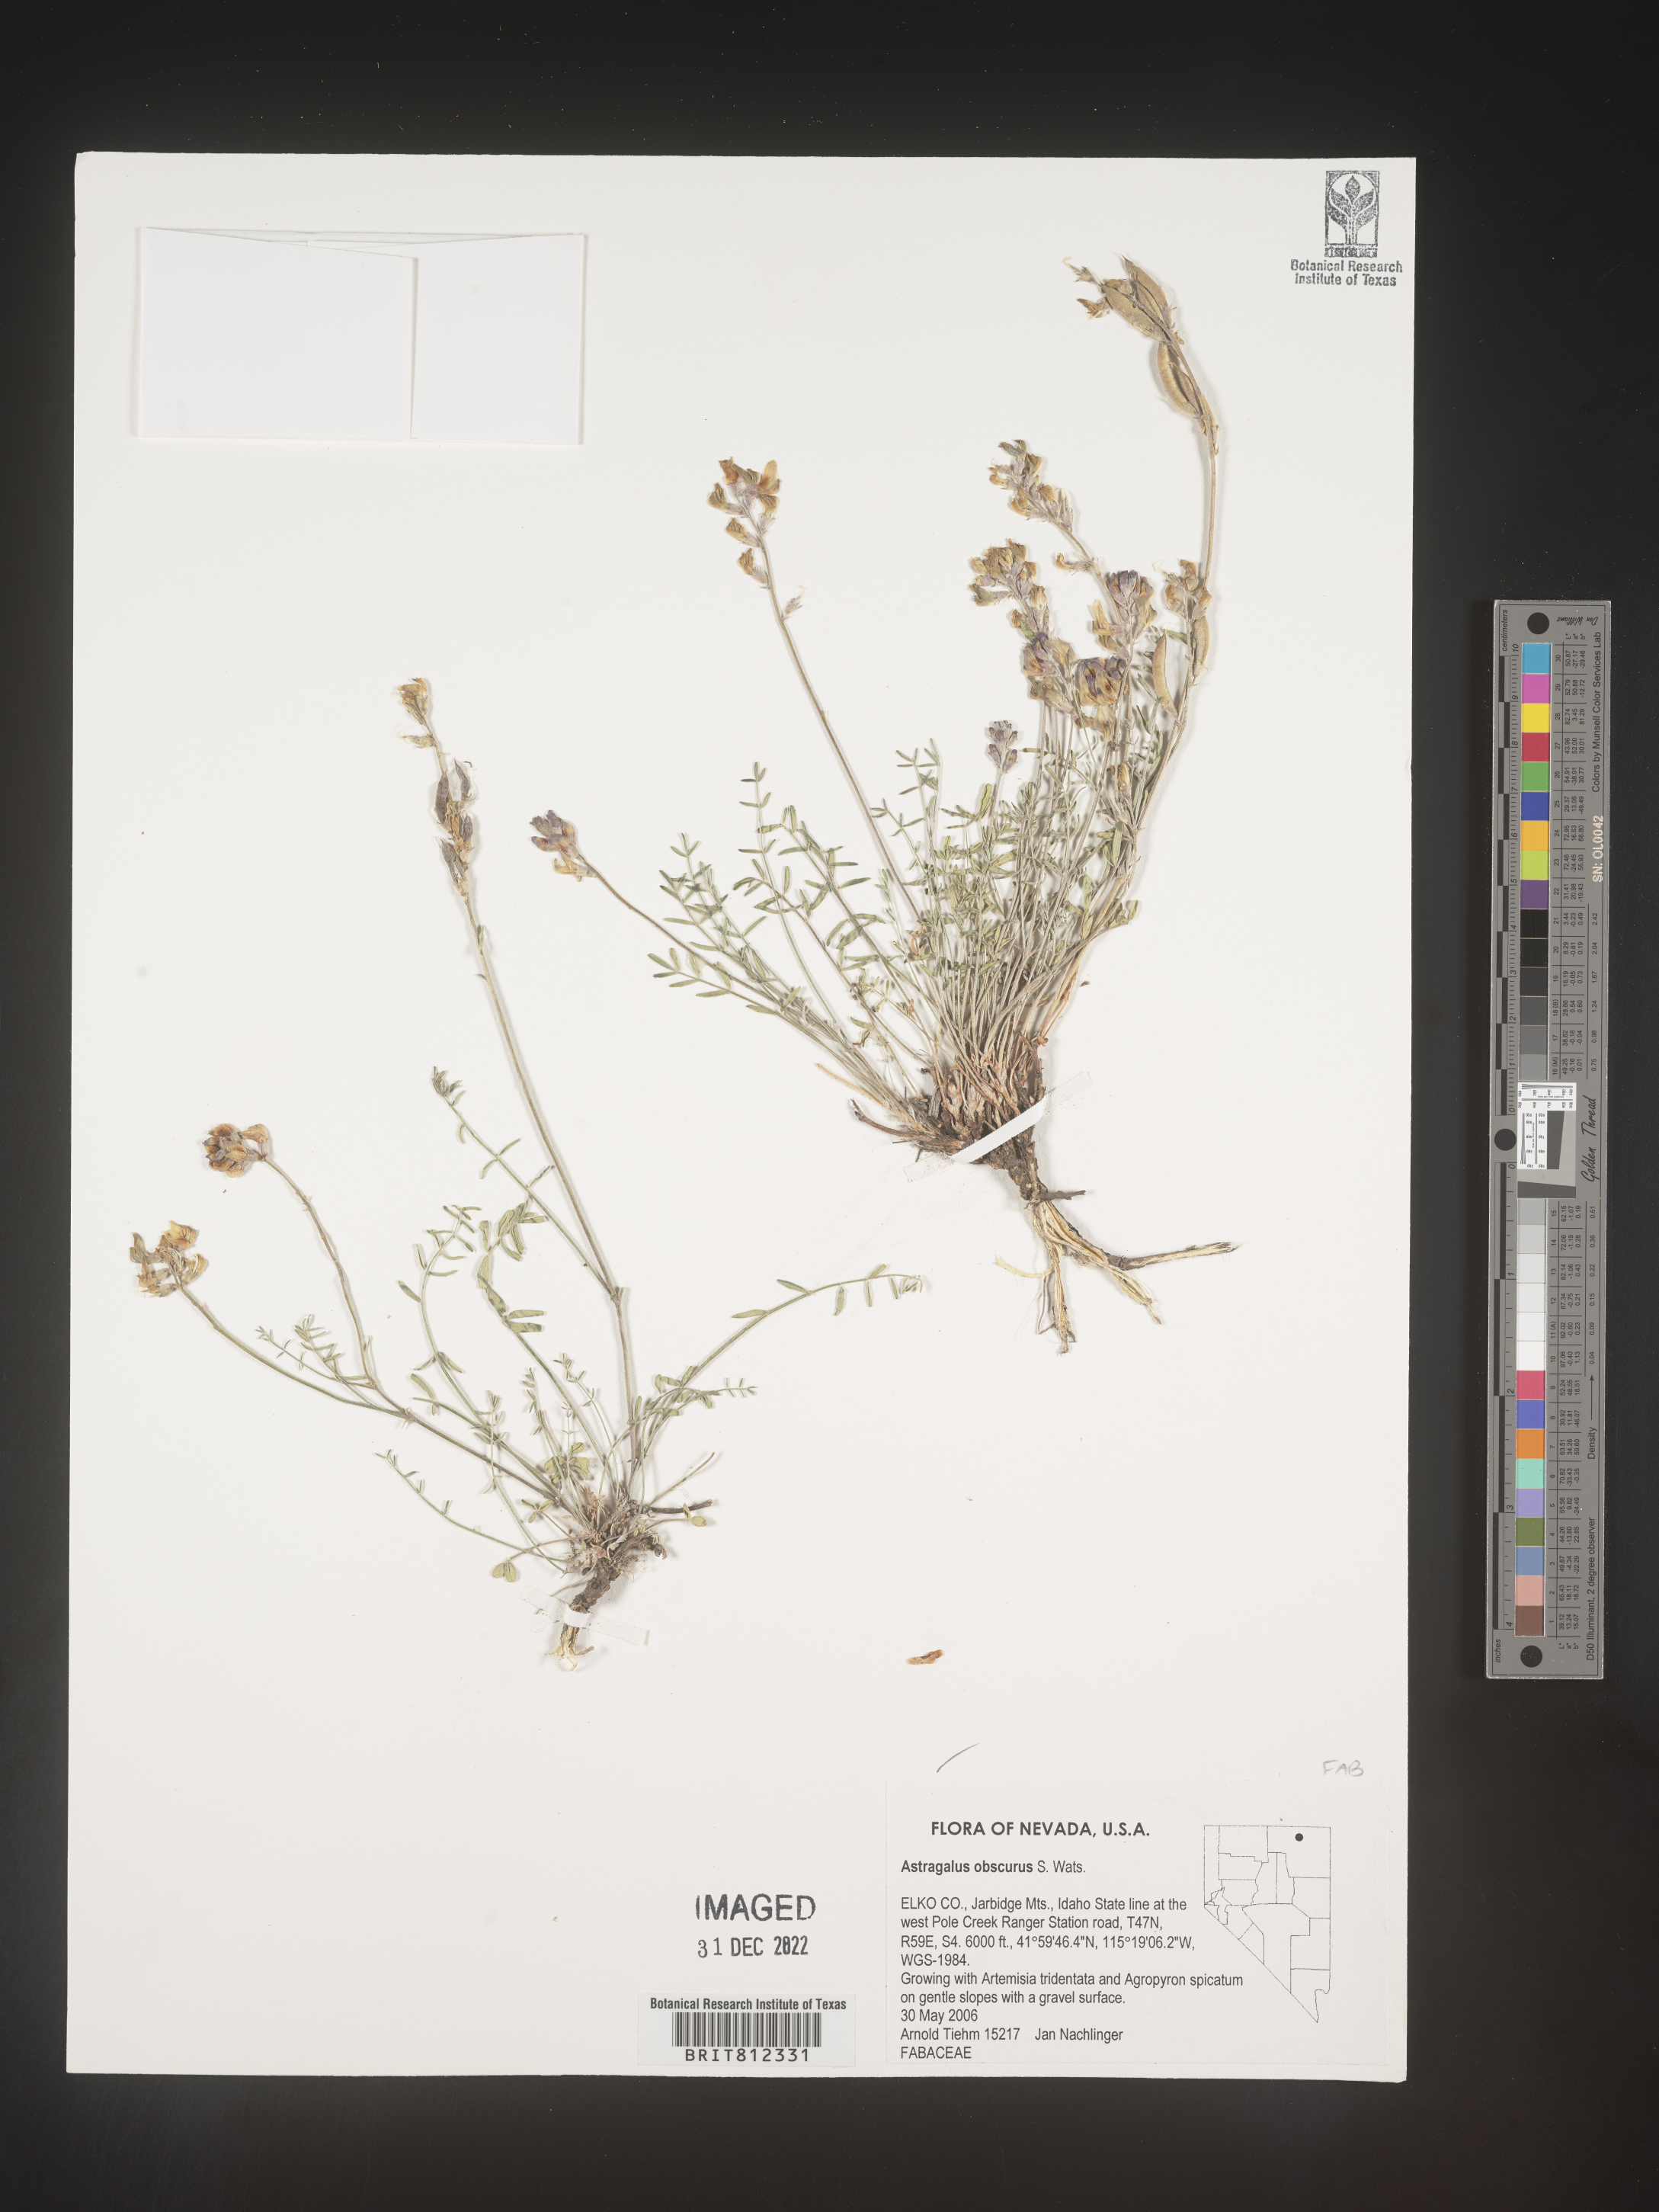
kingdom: Plantae
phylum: Tracheophyta
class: Magnoliopsida
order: Fabales
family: Fabaceae
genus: Astragalus
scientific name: Astragalus
